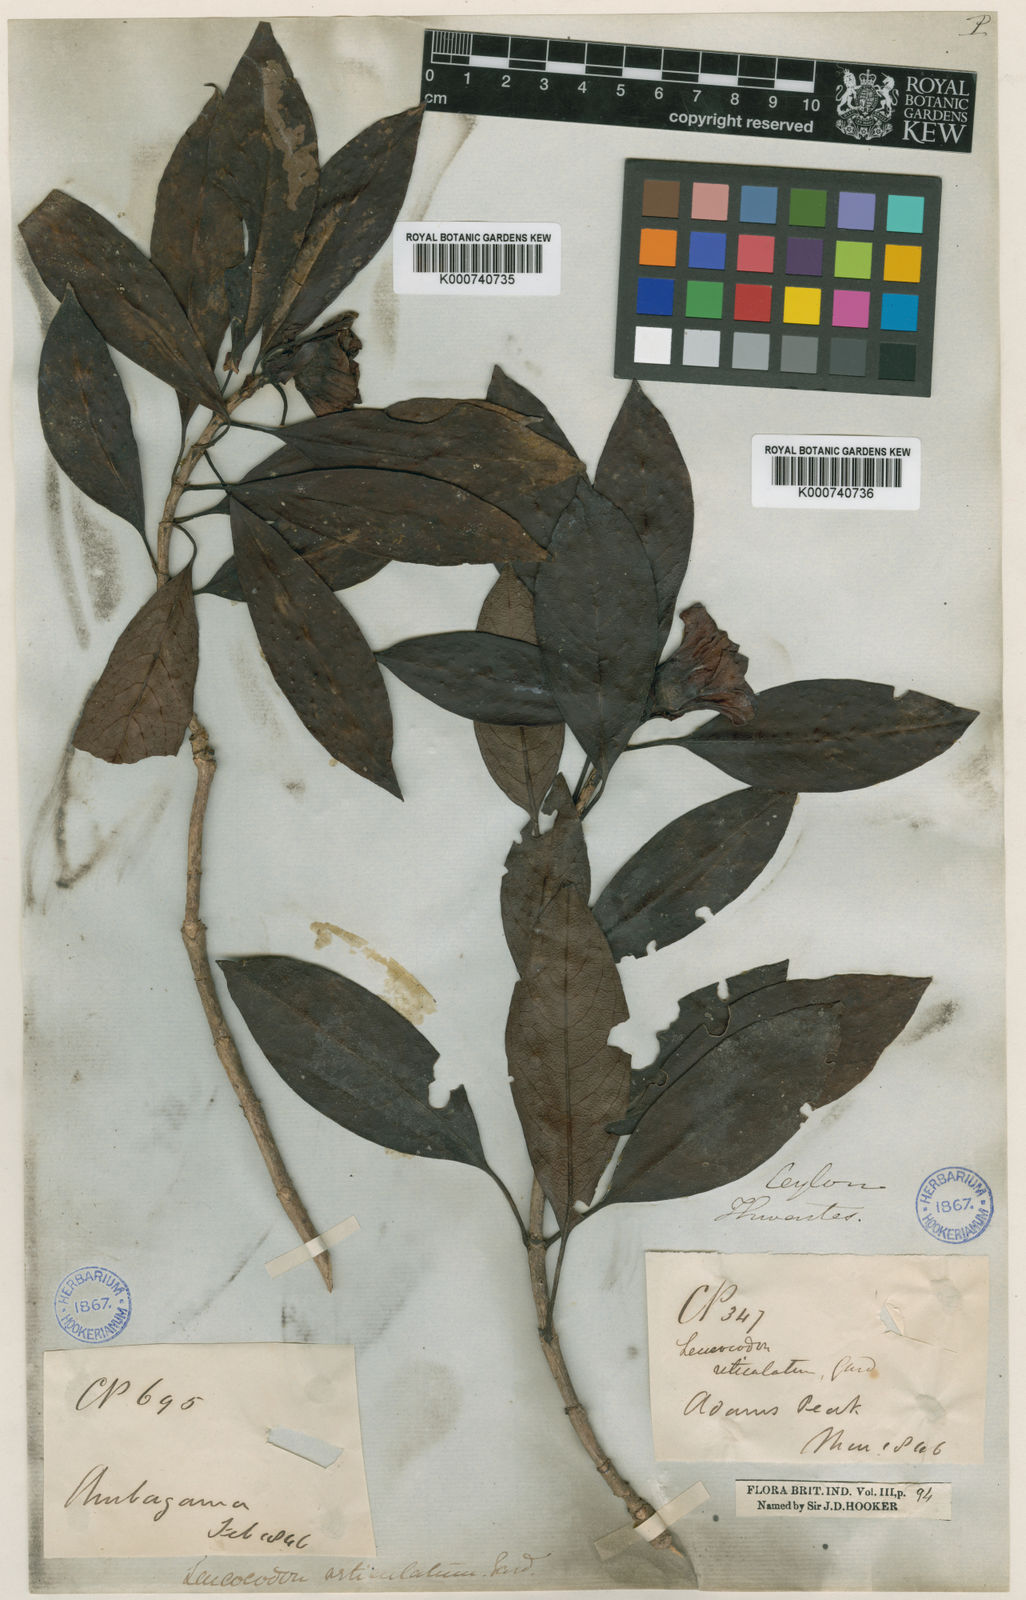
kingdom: Plantae
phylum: Tracheophyta
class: Magnoliopsida
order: Gentianales
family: Rubiaceae
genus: Leucocodon
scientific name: Leucocodon reticulatum
